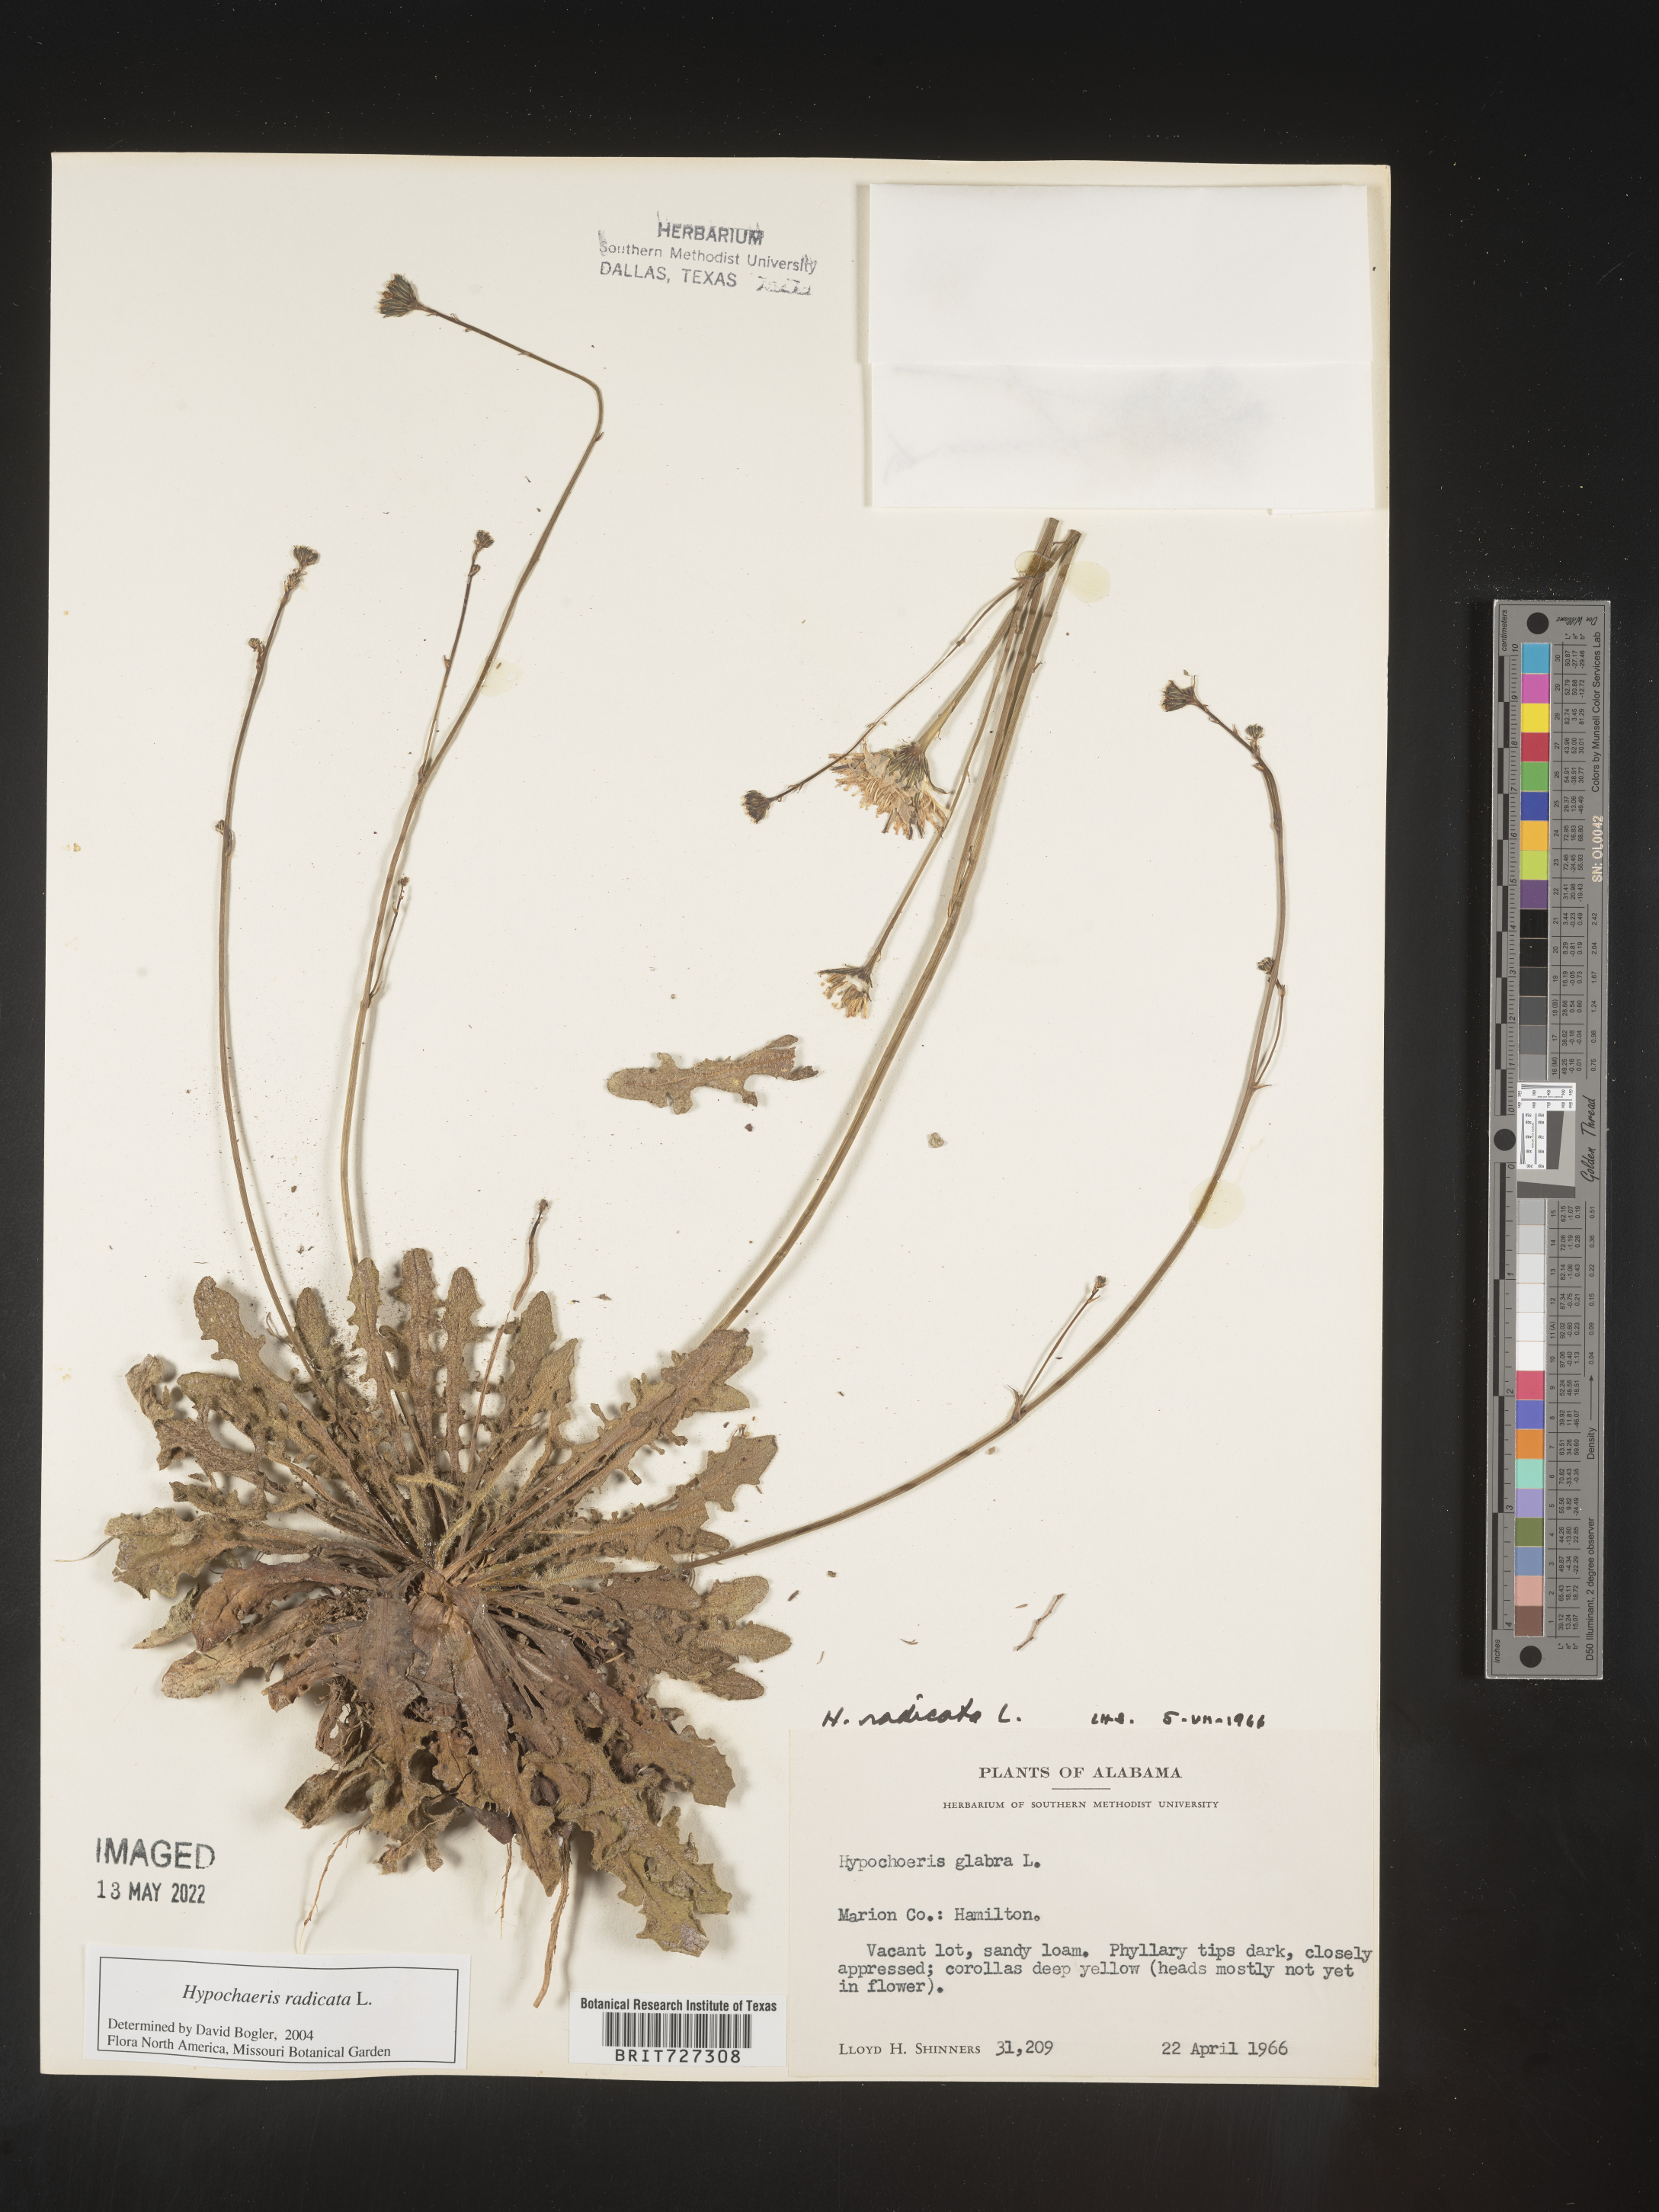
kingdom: Plantae
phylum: Tracheophyta
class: Magnoliopsida
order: Asterales
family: Asteraceae
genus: Hypochaeris
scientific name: Hypochaeris radicata
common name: Flatweed
